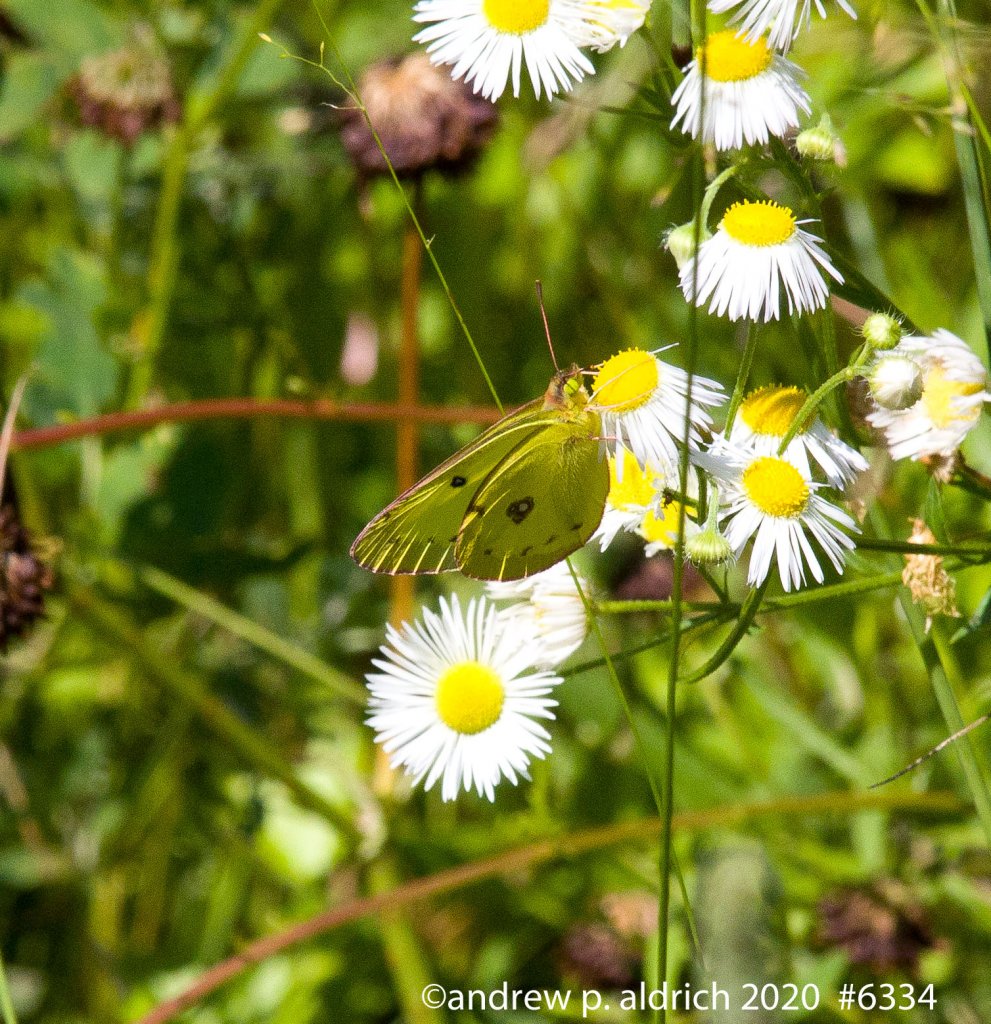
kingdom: Animalia
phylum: Arthropoda
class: Insecta
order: Lepidoptera
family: Pieridae
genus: Colias
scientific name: Colias
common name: Clouded Yellows
